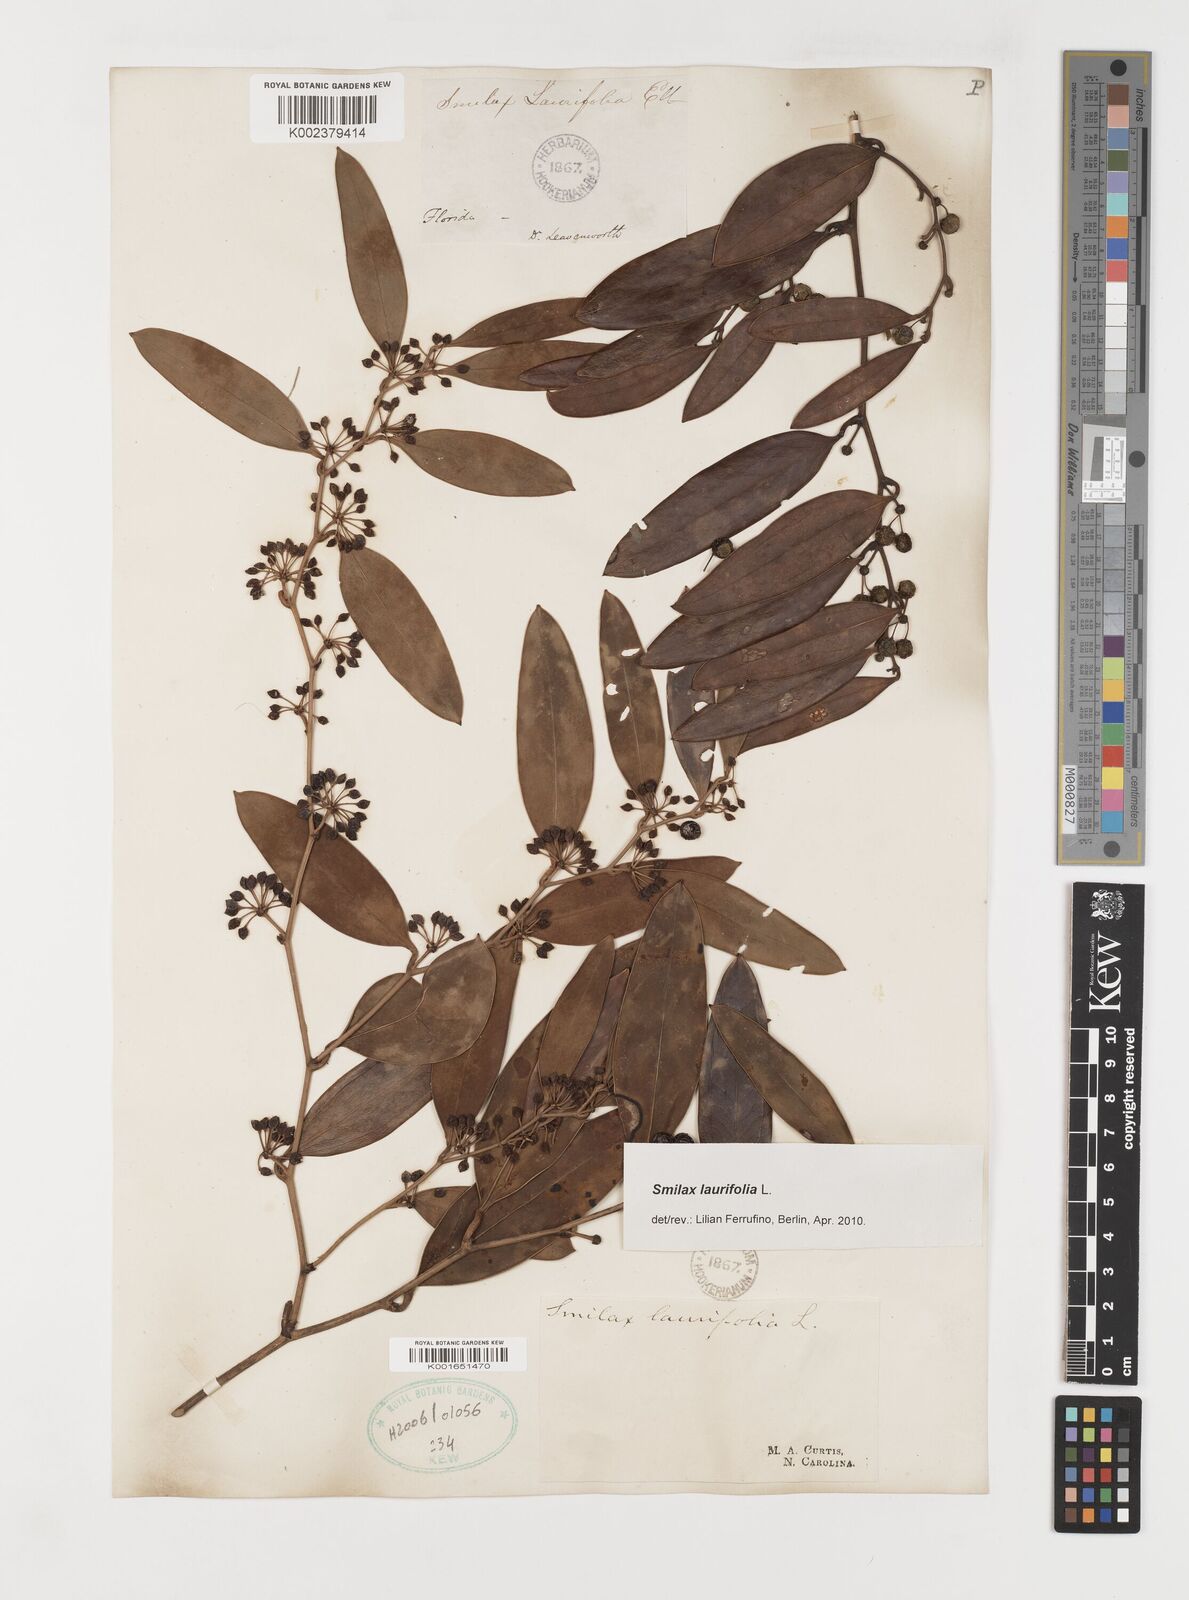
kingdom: Plantae
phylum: Tracheophyta
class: Liliopsida
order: Liliales
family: Smilacaceae
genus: Smilax
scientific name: Smilax laurifolia
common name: Bamboovine
